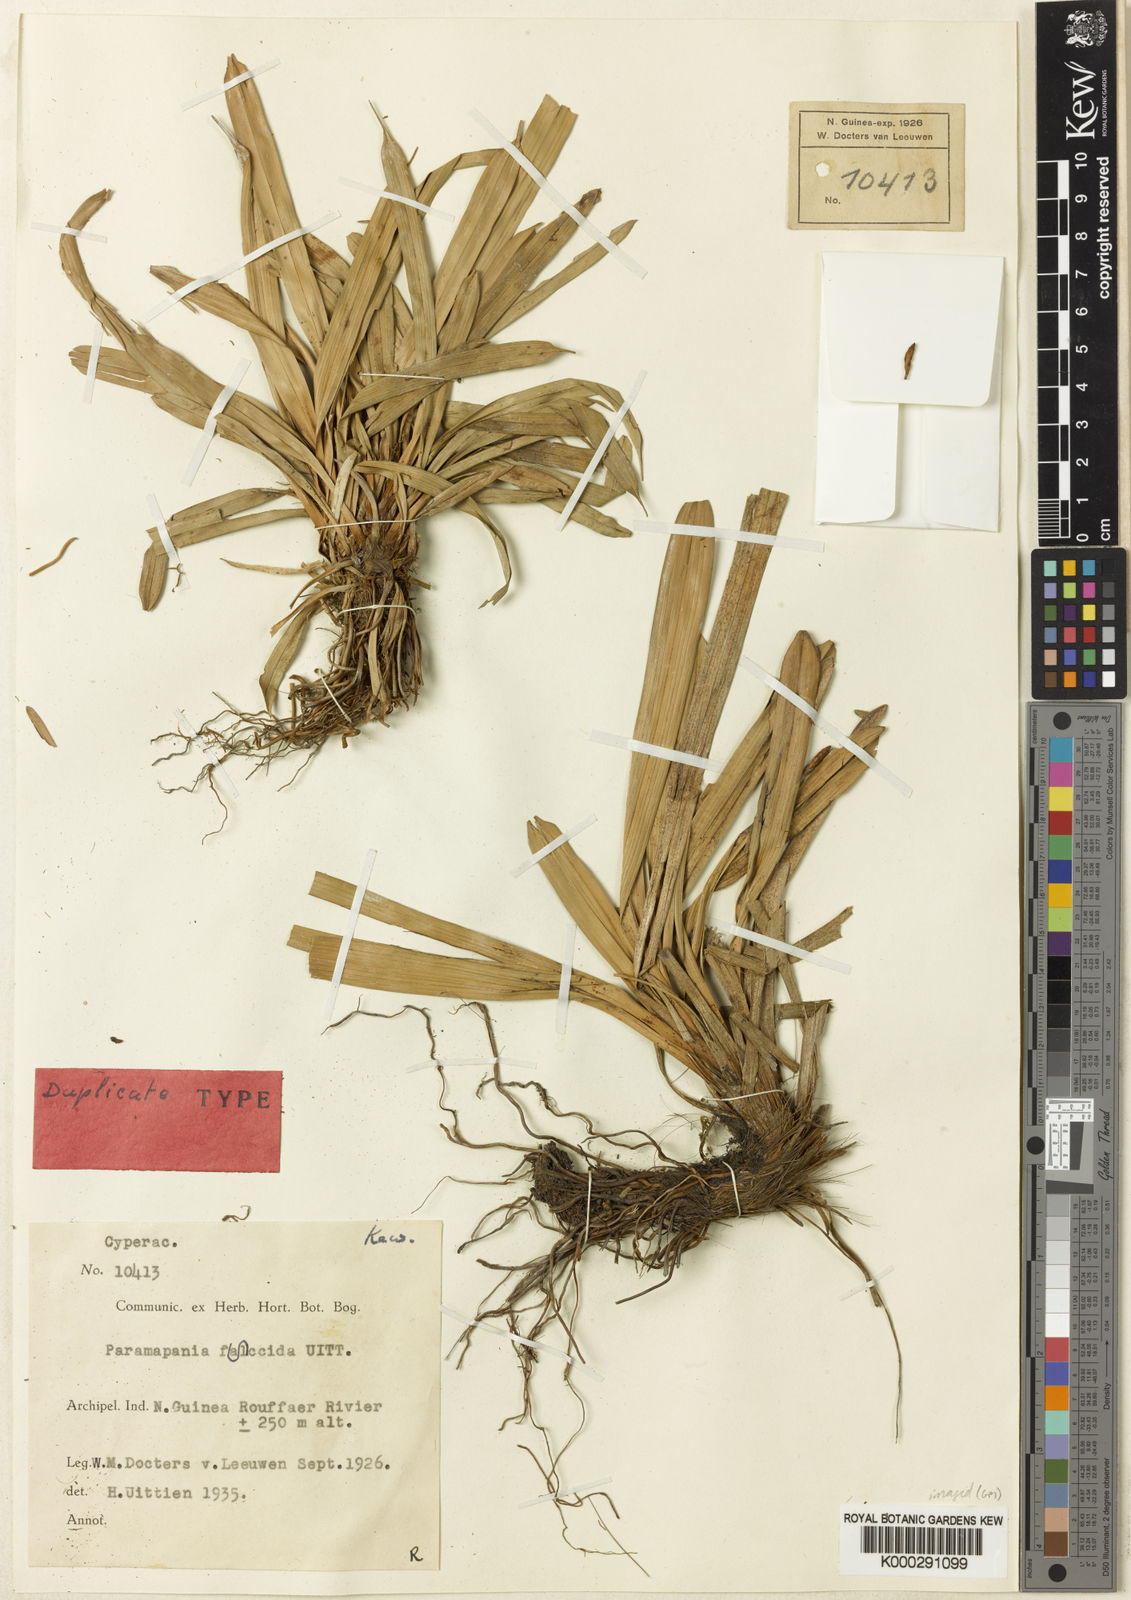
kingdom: Plantae
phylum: Tracheophyta
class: Liliopsida
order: Poales
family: Cyperaceae
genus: Paramapania
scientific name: Paramapania flaccida
